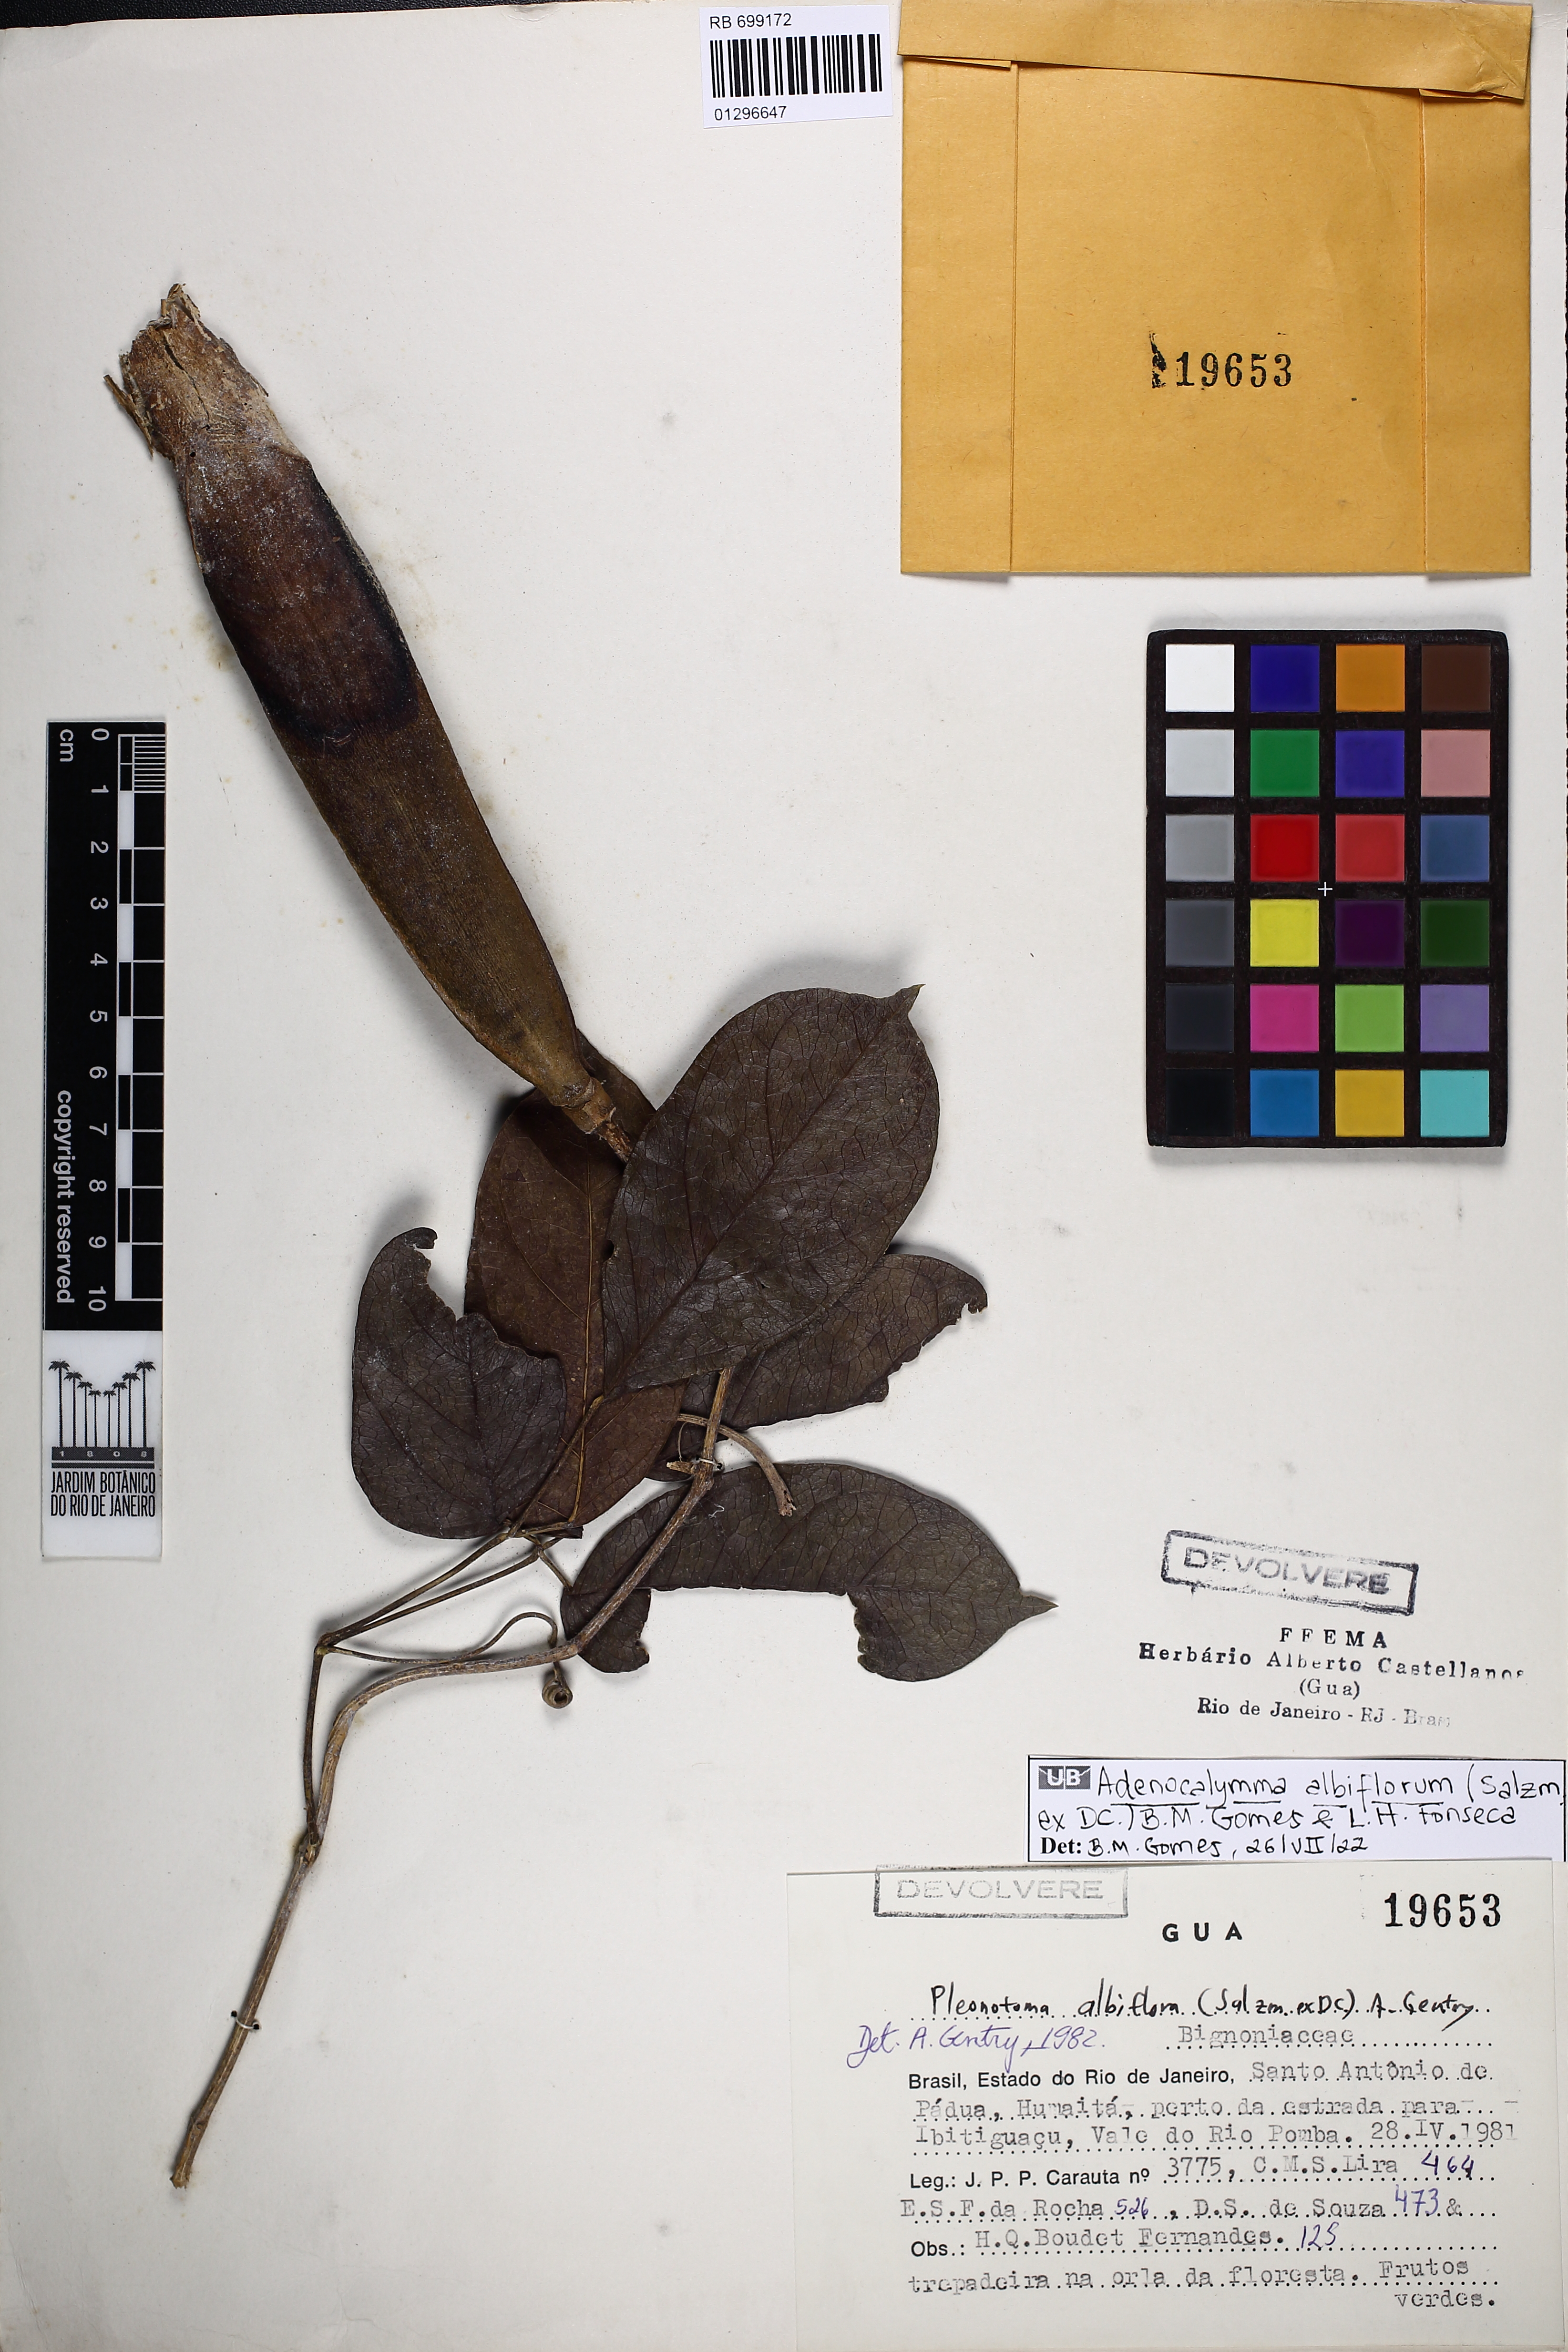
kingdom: Plantae
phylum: Tracheophyta
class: Magnoliopsida
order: Lamiales
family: Bignoniaceae
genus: Adenocalymma
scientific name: Adenocalymma albiflorum
